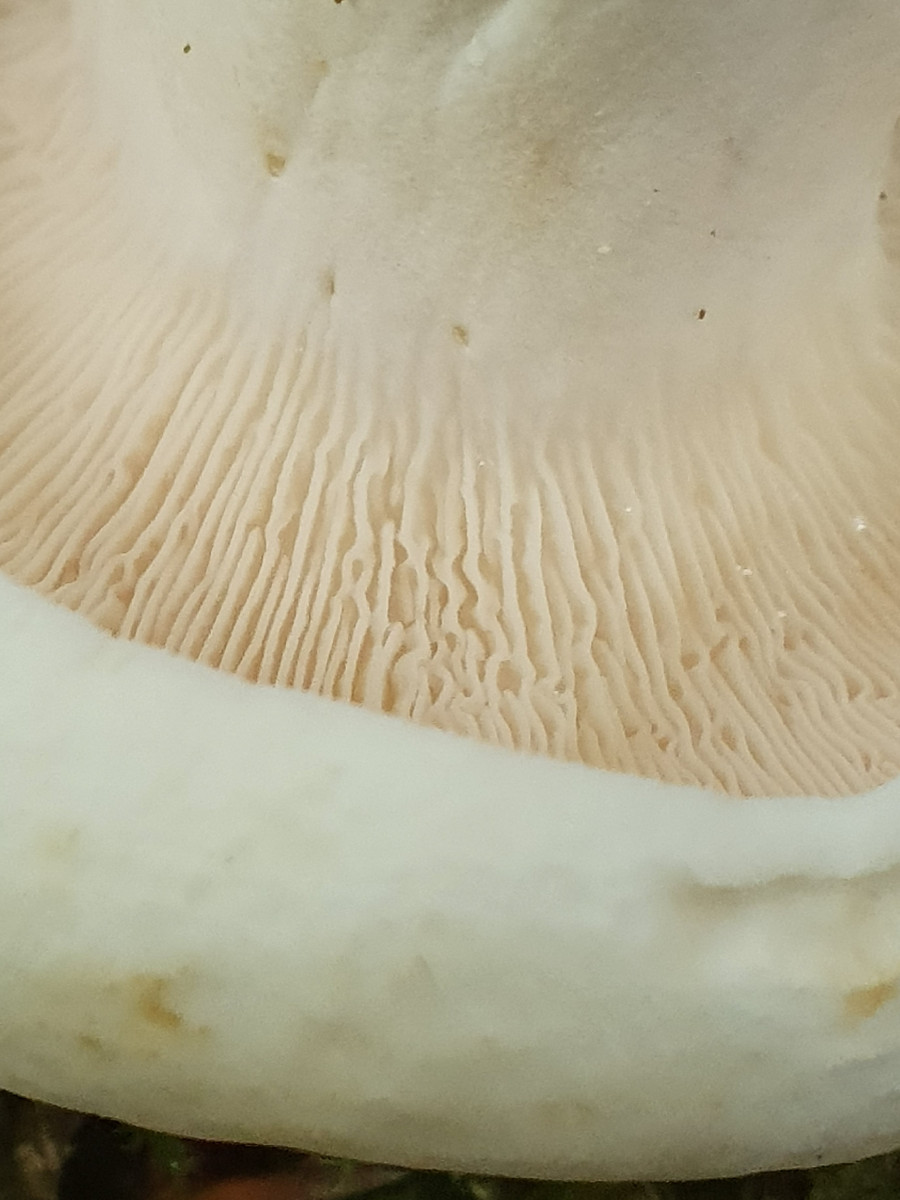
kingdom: Fungi
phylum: Basidiomycota
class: Agaricomycetes
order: Russulales
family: Russulaceae
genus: Lactifluus
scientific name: Lactifluus piperatus
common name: peber-mælkehat
